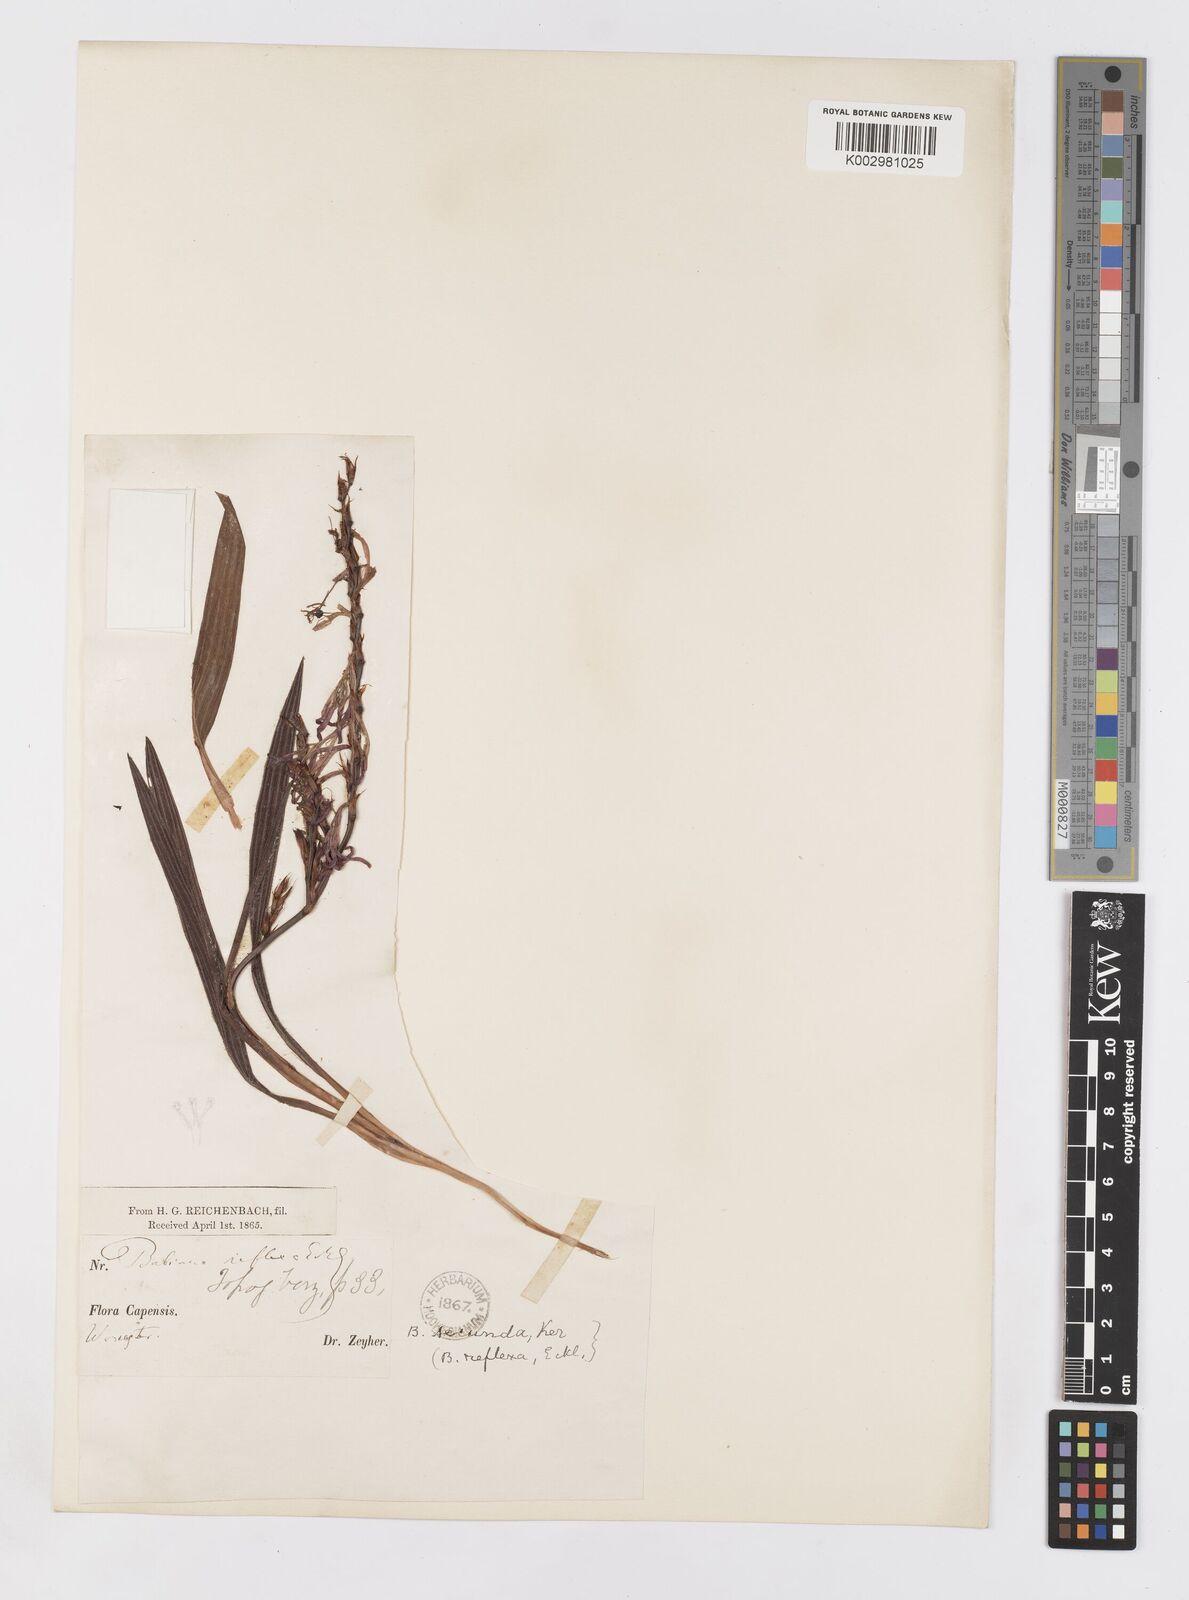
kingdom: Plantae
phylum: Tracheophyta
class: Liliopsida
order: Asparagales
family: Iridaceae
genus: Babiana
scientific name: Babiana secunda
